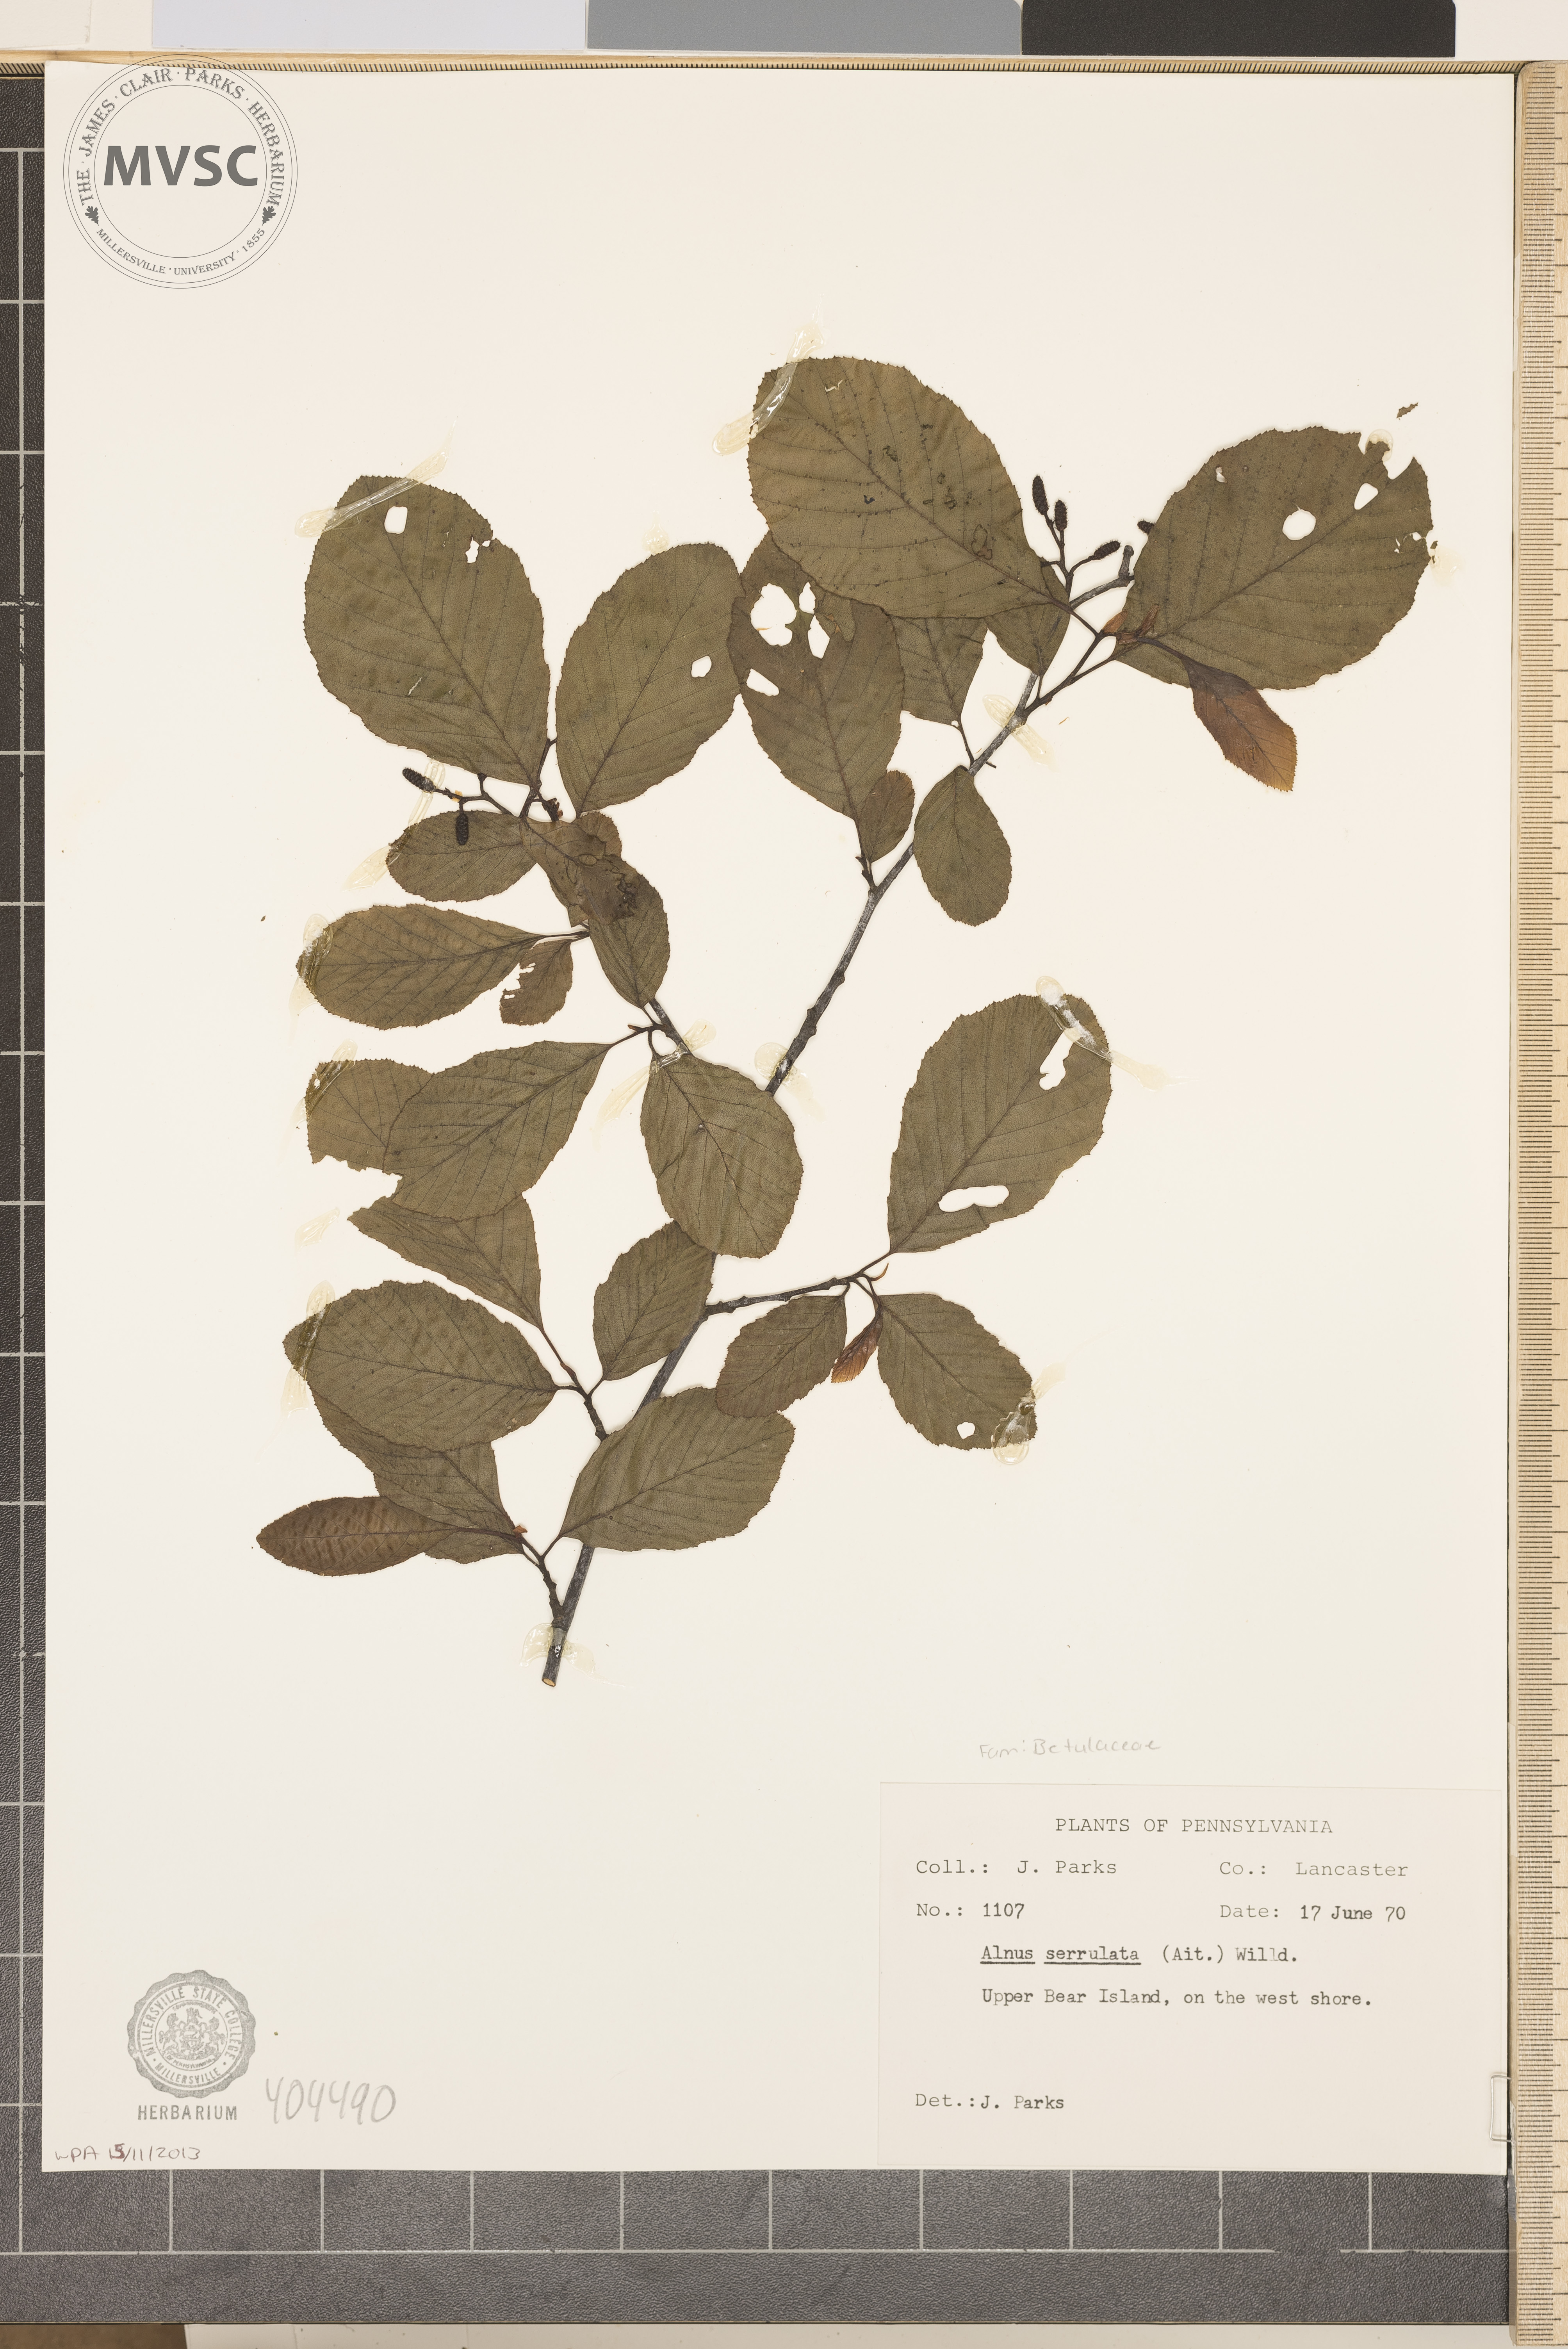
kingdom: Plantae
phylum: Tracheophyta
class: Magnoliopsida
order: Fagales
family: Betulaceae
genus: Alnus
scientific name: Alnus serrulata
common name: Hazel alder
